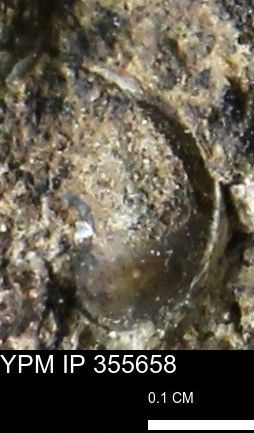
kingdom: Animalia
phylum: Mollusca
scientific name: Mollusca
